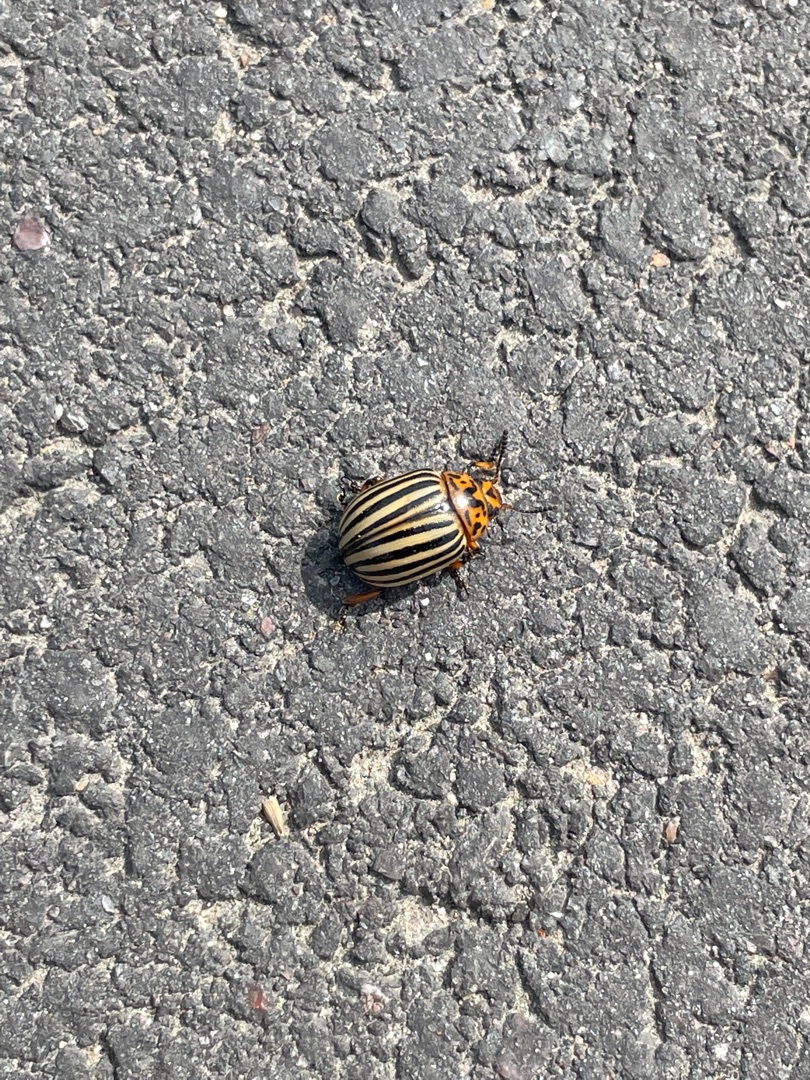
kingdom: Animalia
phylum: Arthropoda
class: Insecta
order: Coleoptera
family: Chrysomelidae
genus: Leptinotarsa
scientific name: Leptinotarsa decemlineata
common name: Coloradobille
